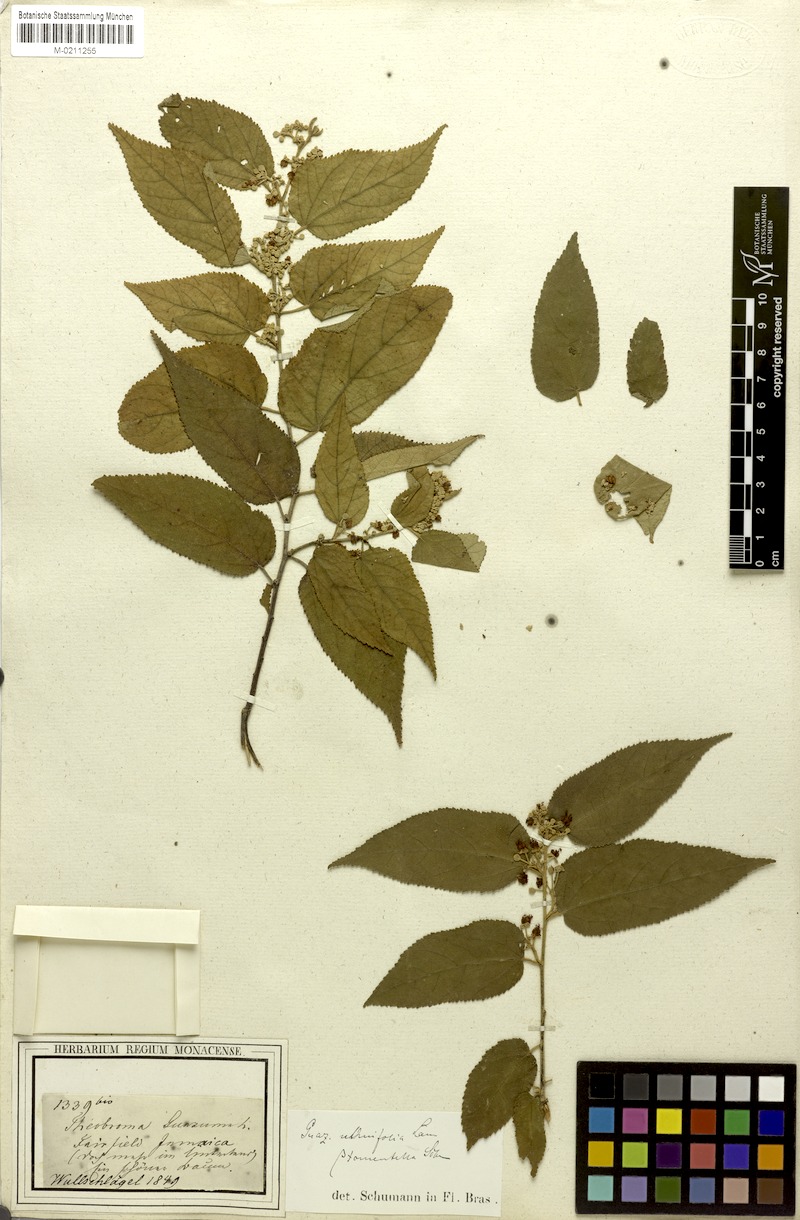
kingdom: Plantae
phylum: Tracheophyta
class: Magnoliopsida
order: Malvales
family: Malvaceae
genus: Guazuma
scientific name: Guazuma ulmifolia
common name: Bastard-cedar
